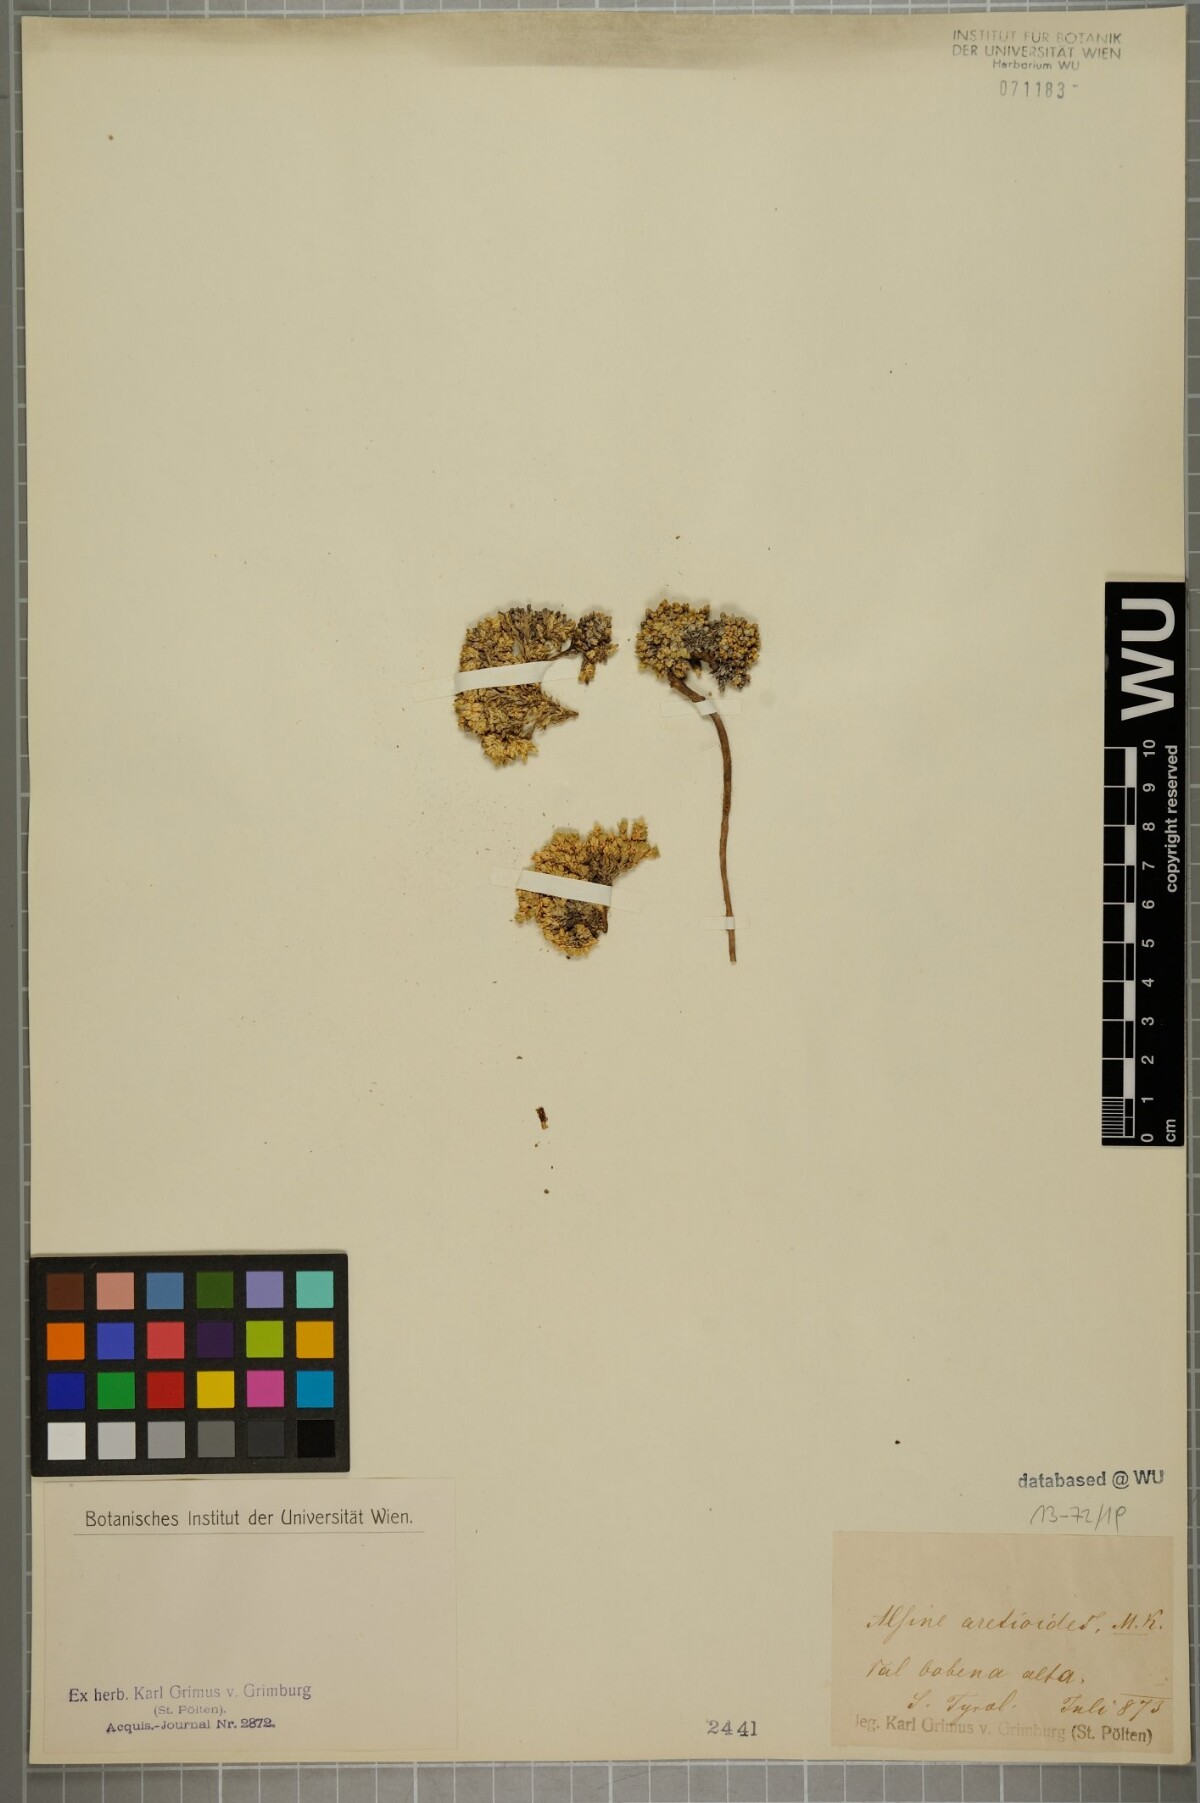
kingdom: Plantae
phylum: Tracheophyta
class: Magnoliopsida
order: Caryophyllales
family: Caryophyllaceae
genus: Facchinia
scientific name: Facchinia cherlerioides
